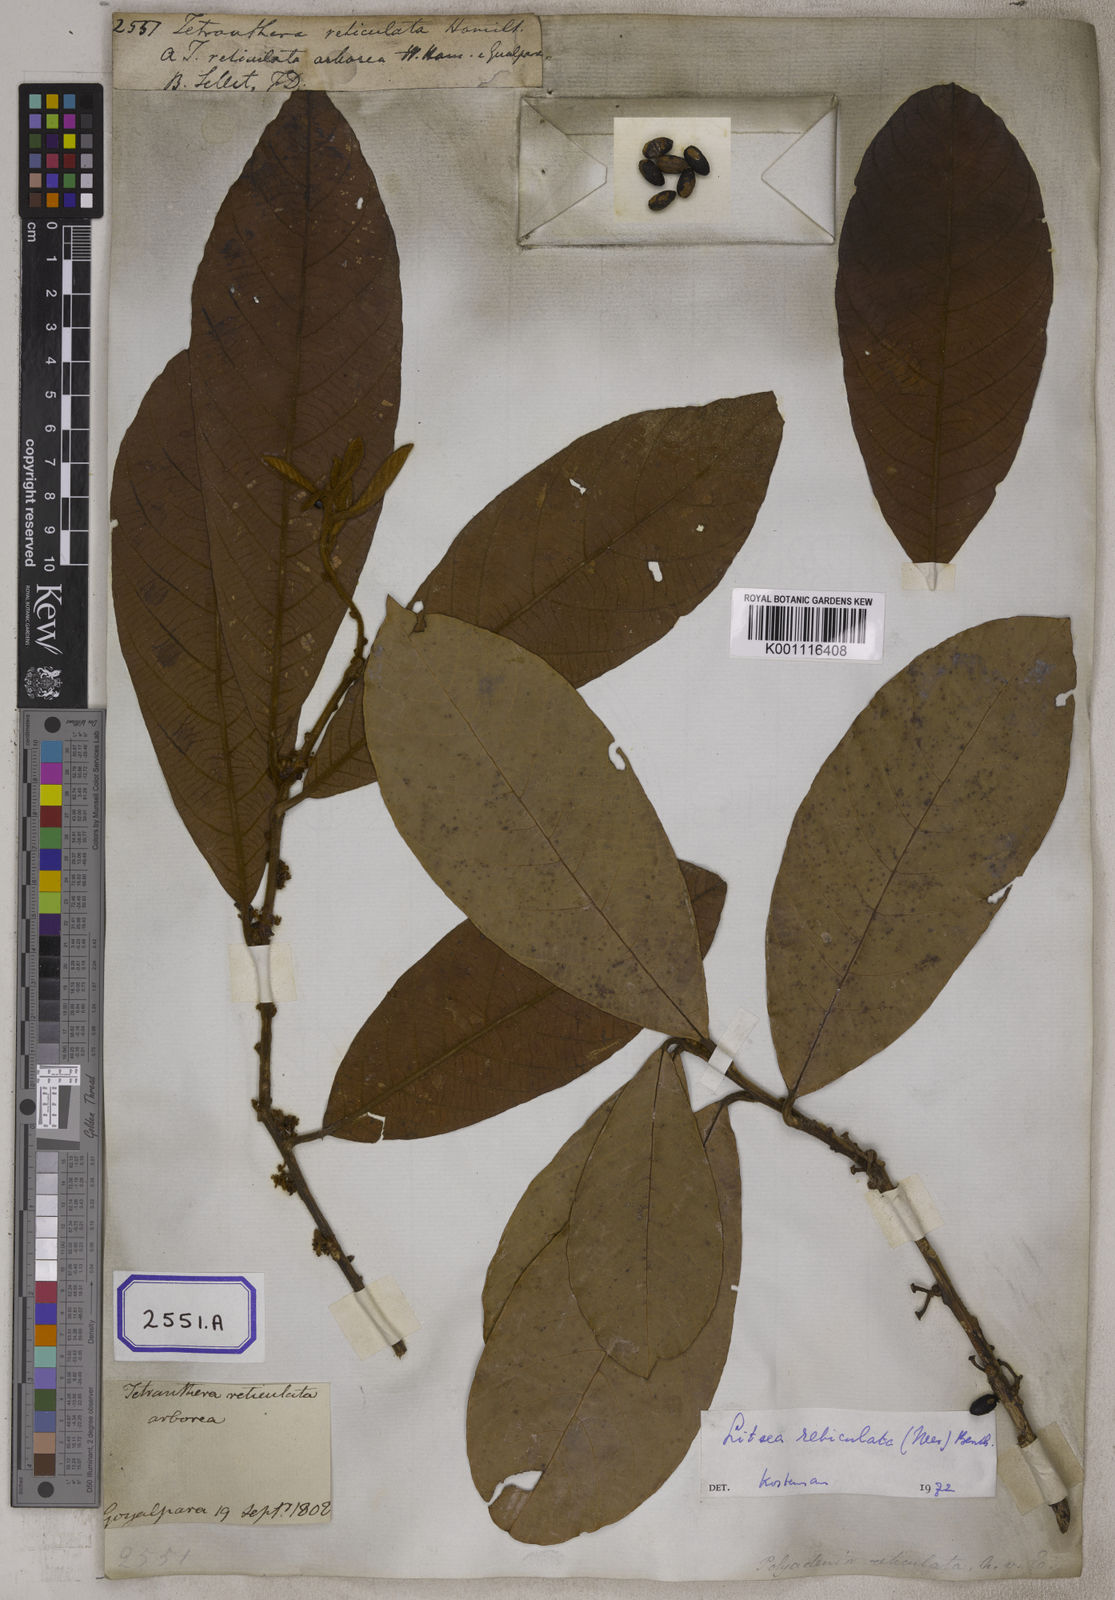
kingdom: Plantae
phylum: Tracheophyta
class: Magnoliopsida
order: Laurales
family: Lauraceae
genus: Lindera
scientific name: Lindera reticulata
